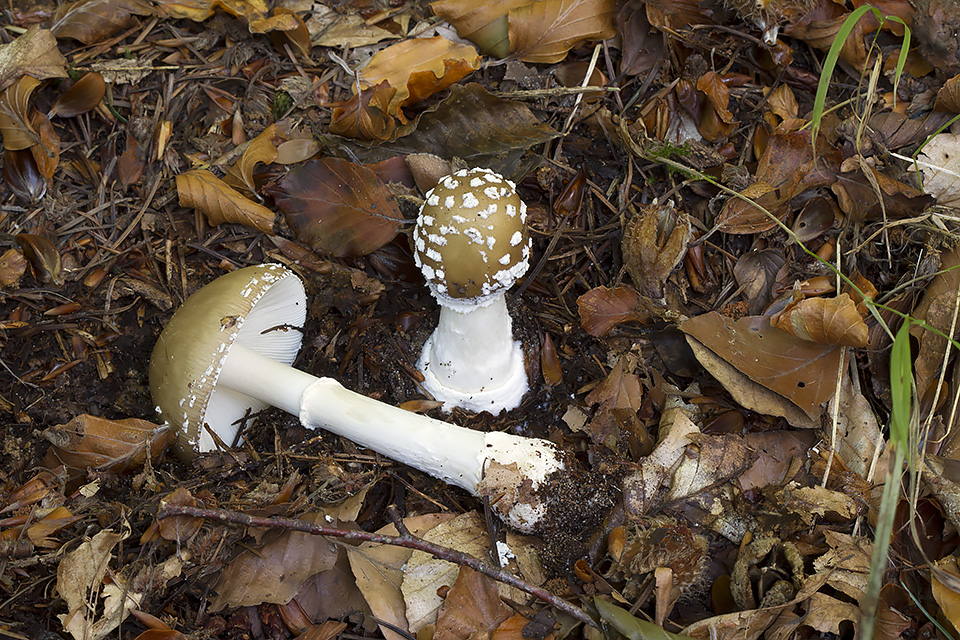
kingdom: Fungi
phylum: Basidiomycota
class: Agaricomycetes
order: Agaricales
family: Amanitaceae
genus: Amanita
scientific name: Amanita pantherina
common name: panter-fluesvamp
